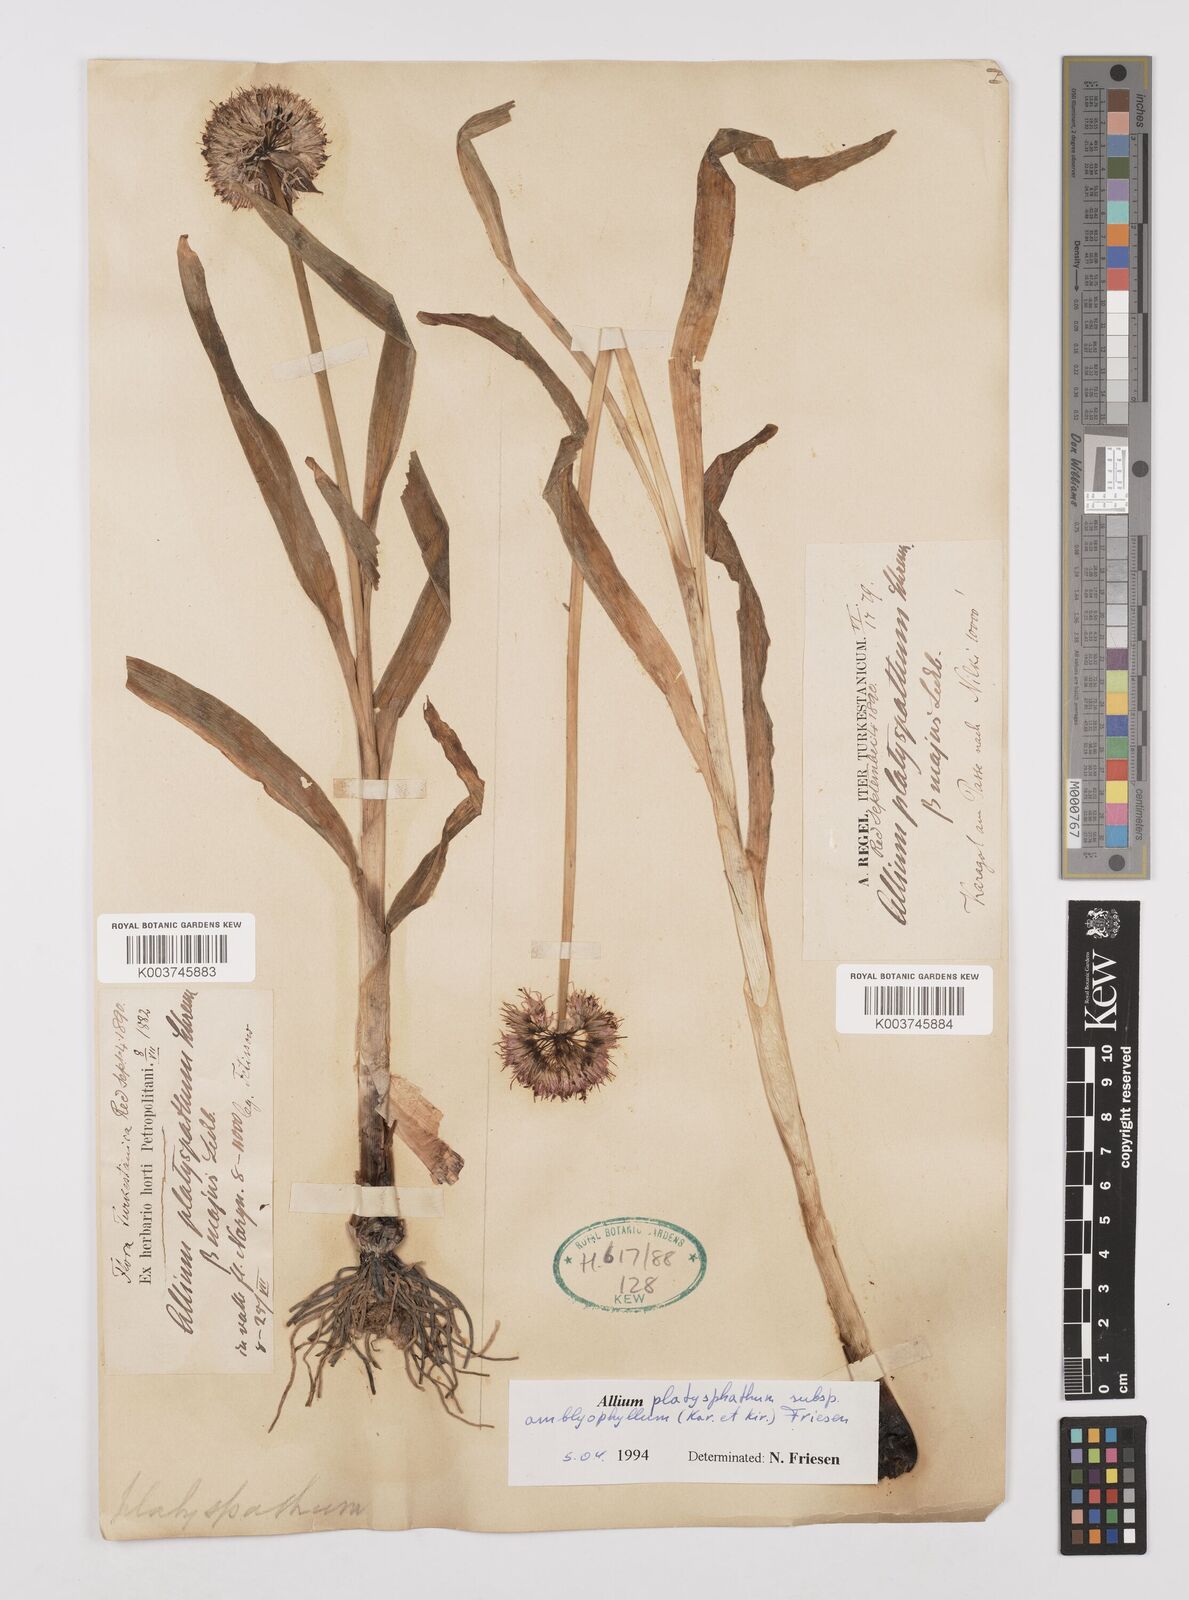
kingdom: Plantae
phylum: Tracheophyta
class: Liliopsida
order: Asparagales
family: Amaryllidaceae
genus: Allium
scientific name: Allium platyspathum
